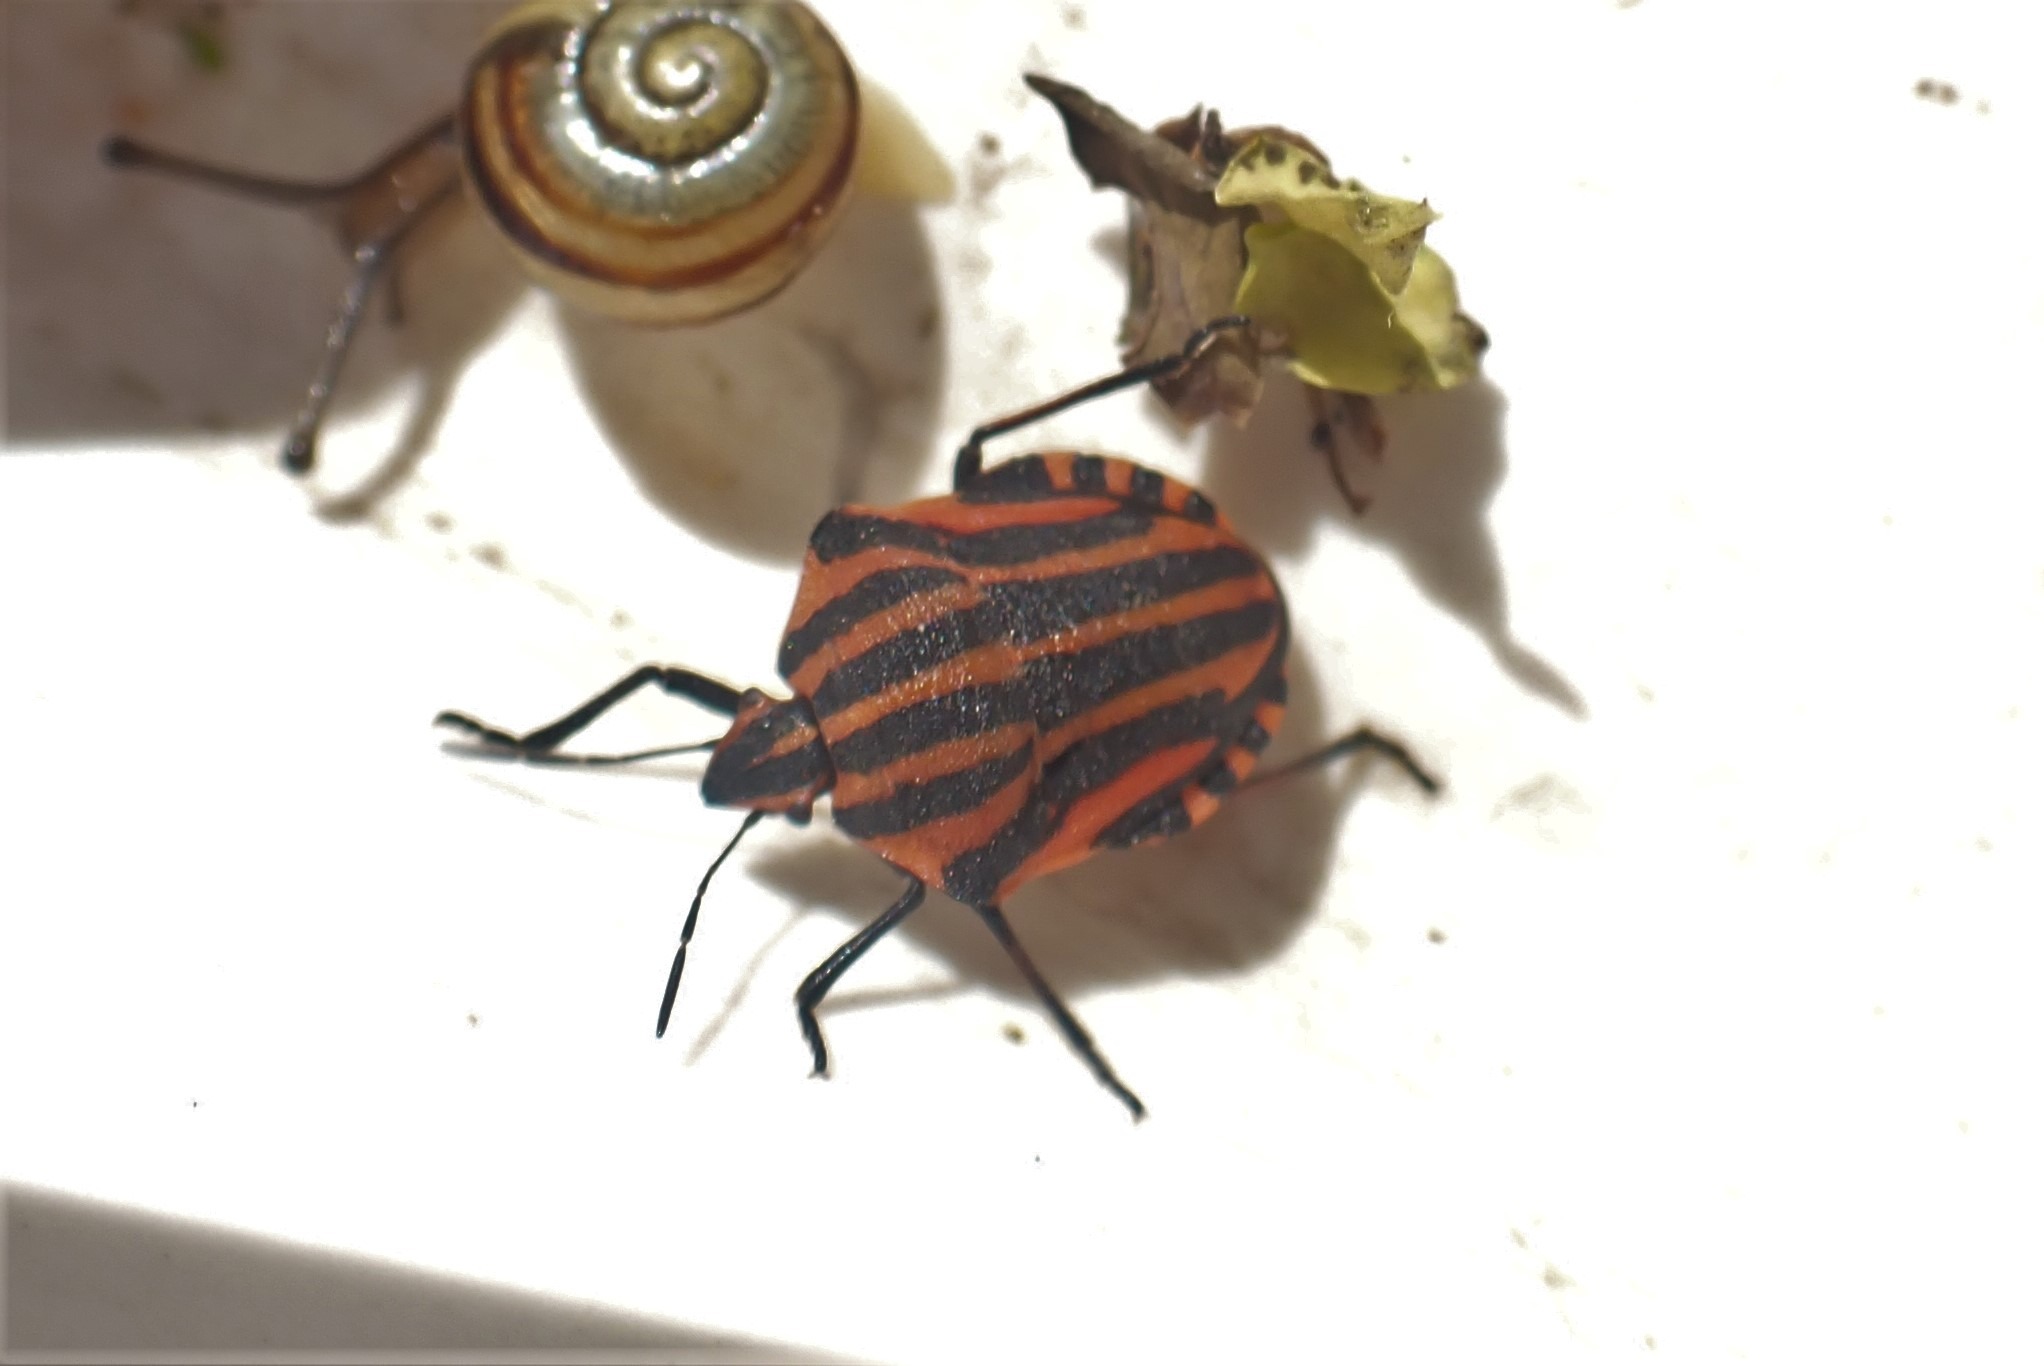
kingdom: Animalia
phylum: Arthropoda
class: Insecta
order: Hemiptera
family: Pentatomidae
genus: Graphosoma
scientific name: Graphosoma italicum
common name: Stribetæge
